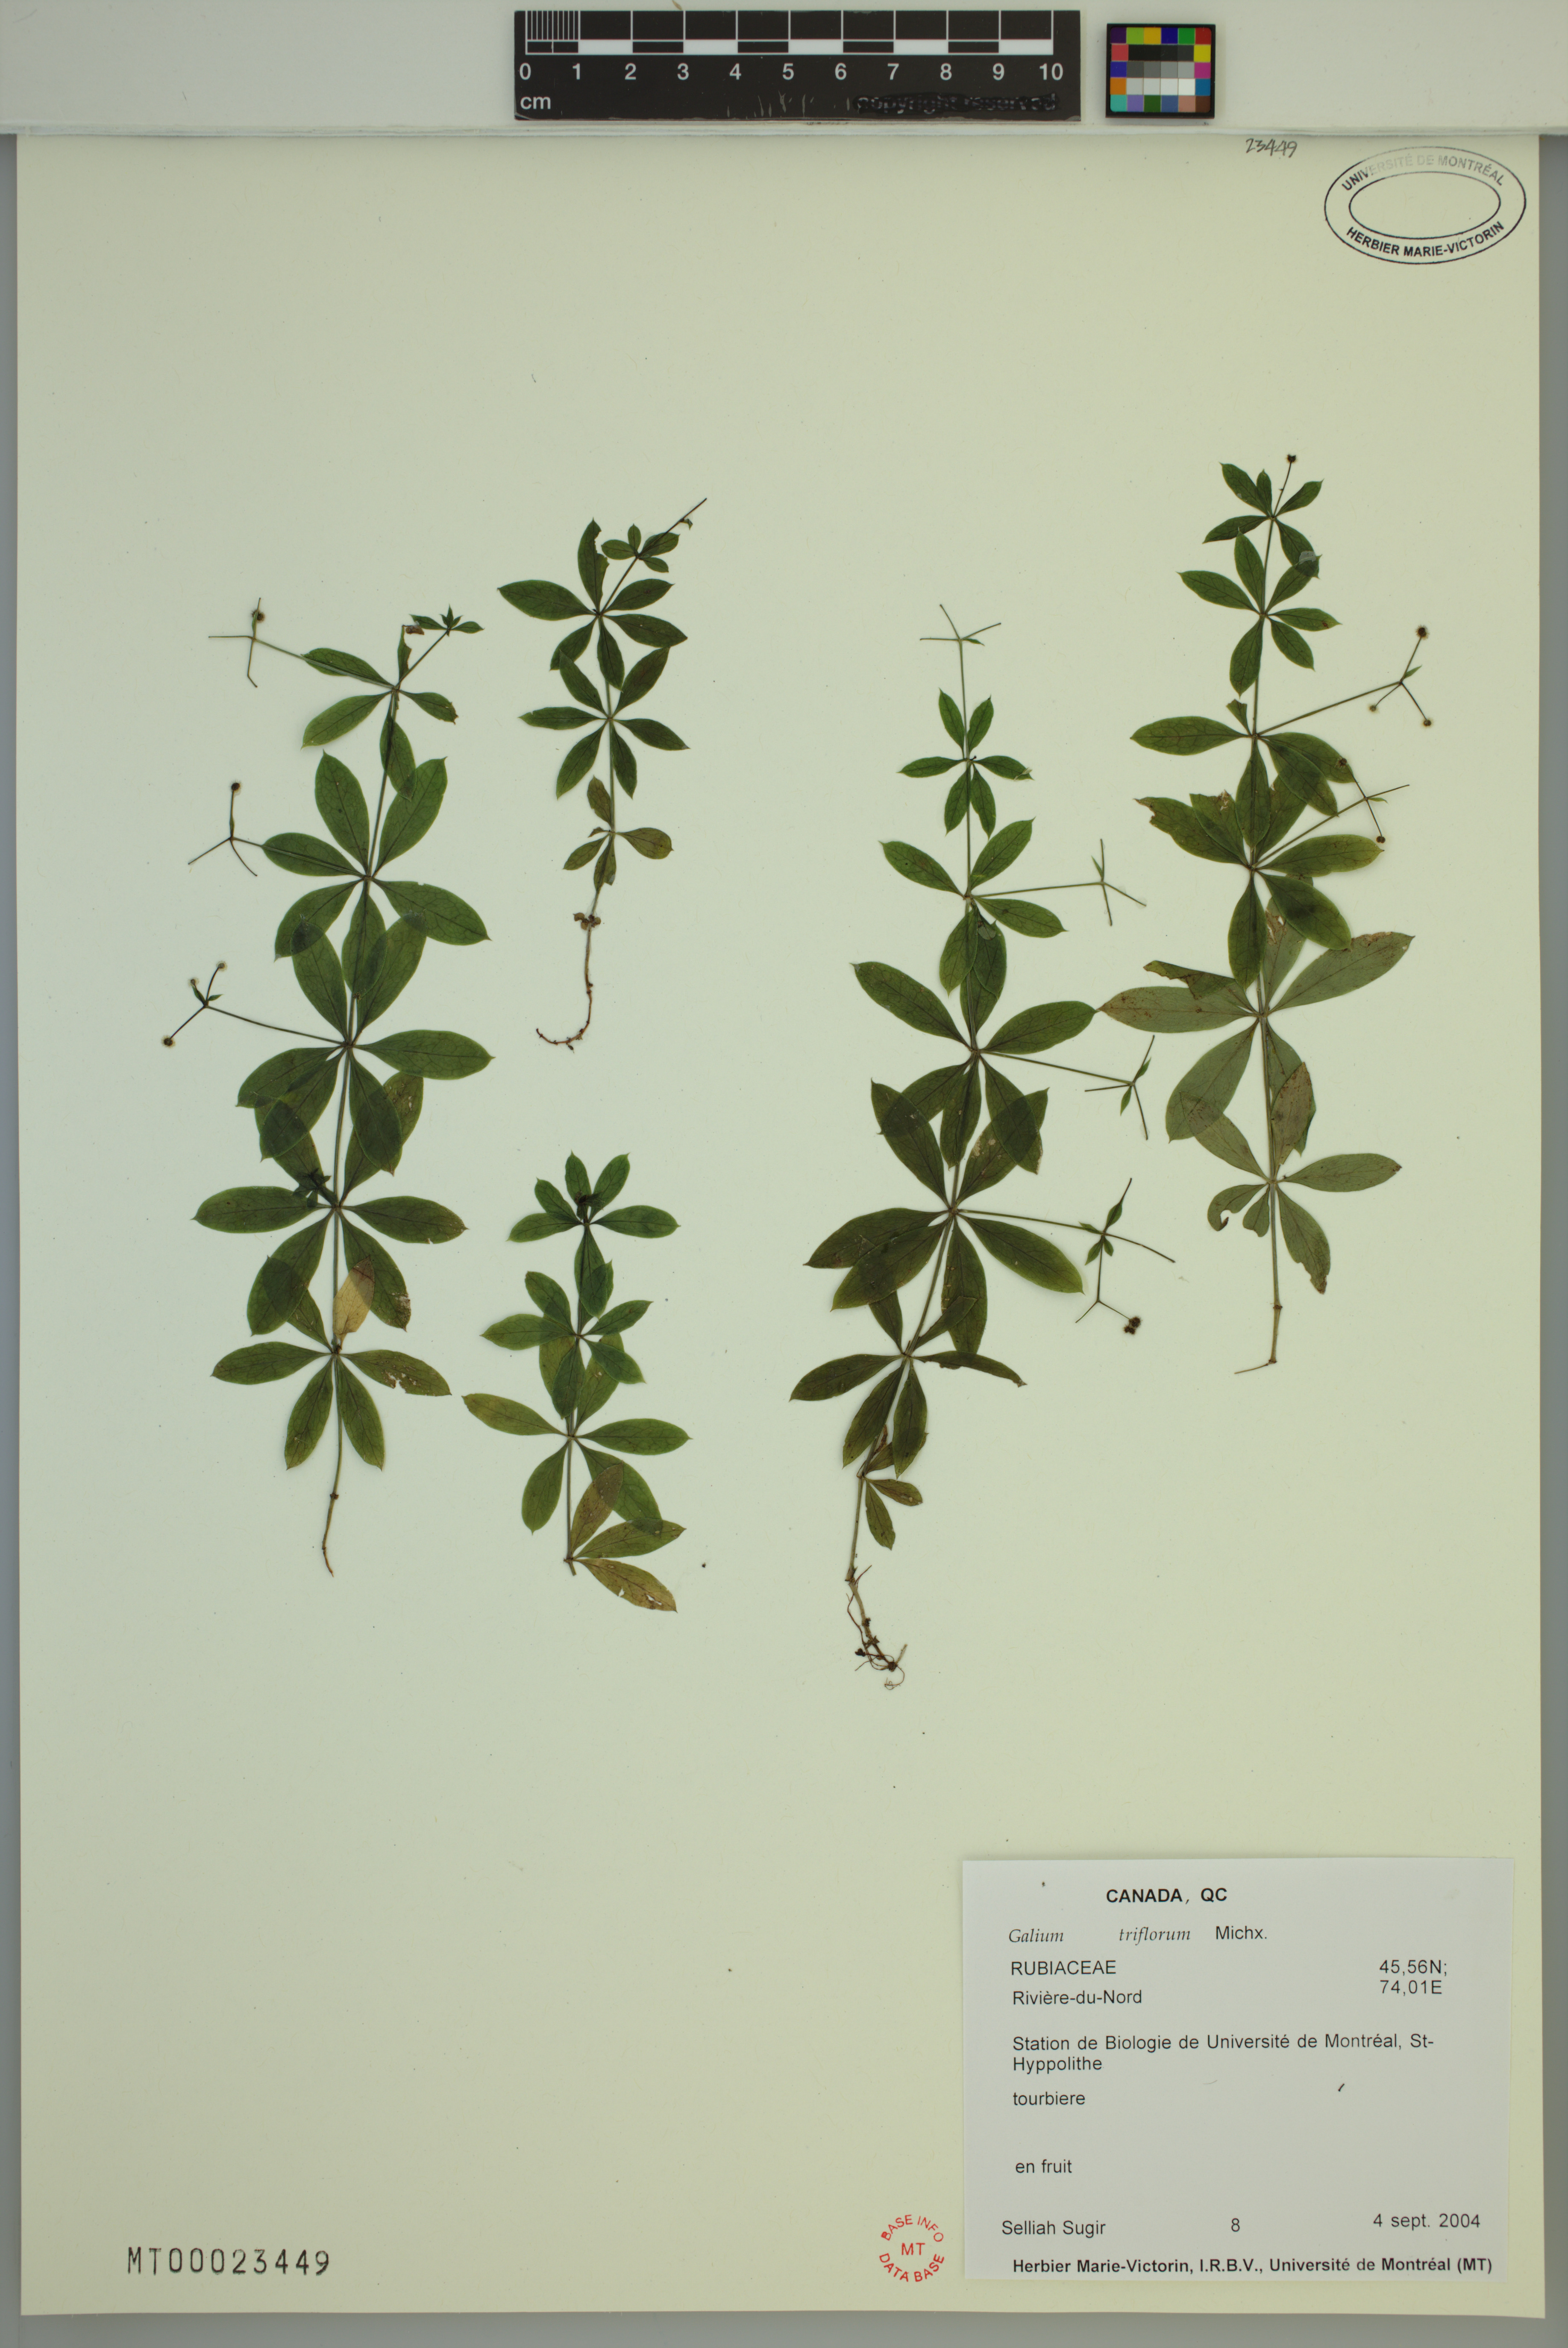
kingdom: Plantae
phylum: Tracheophyta
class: Magnoliopsida
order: Gentianales
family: Rubiaceae
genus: Galium
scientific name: Galium triflorum
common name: Fragrant bedstraw
